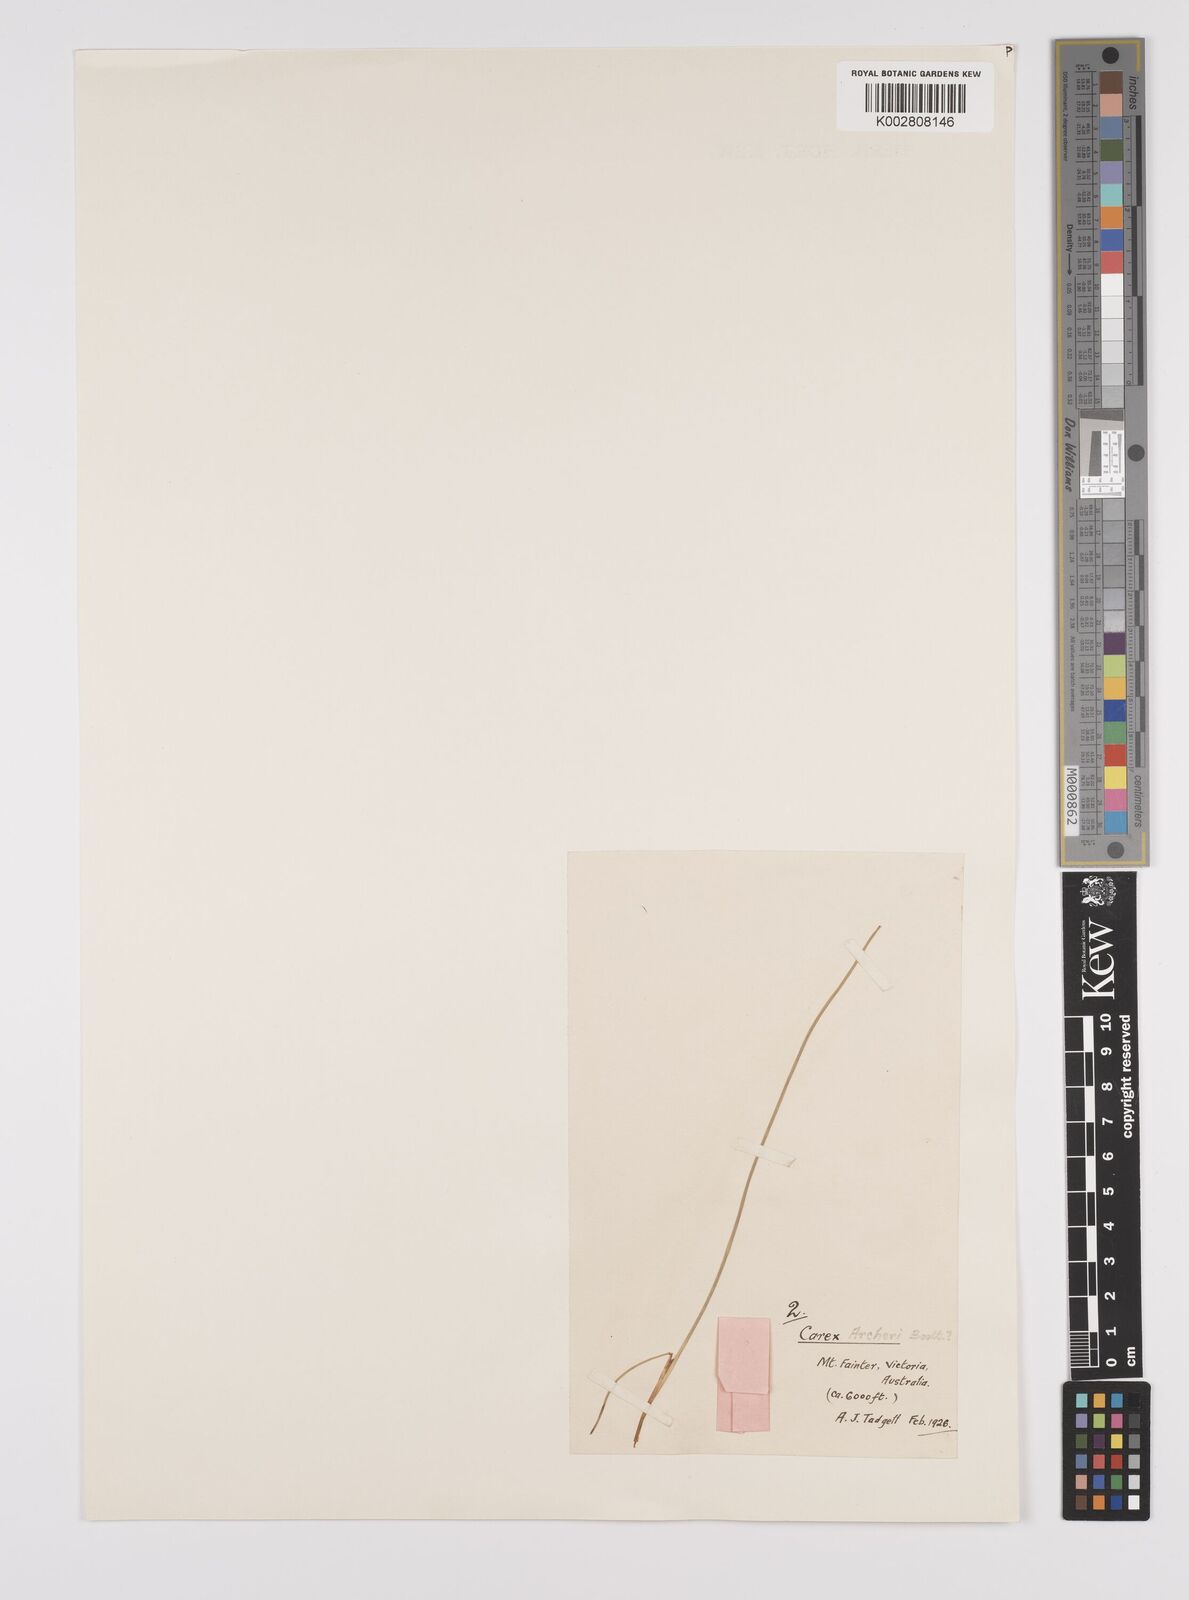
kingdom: Plantae
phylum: Tracheophyta
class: Liliopsida
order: Poales
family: Cyperaceae
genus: Carex
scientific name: Carex archeri
